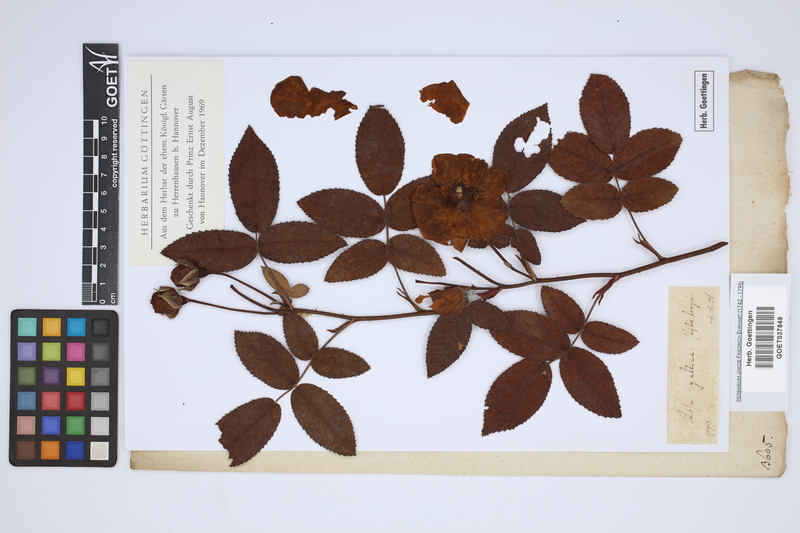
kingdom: Plantae
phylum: Tracheophyta
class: Magnoliopsida
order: Rosales
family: Rosaceae
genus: Rosa
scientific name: Rosa gallica
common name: French rose
